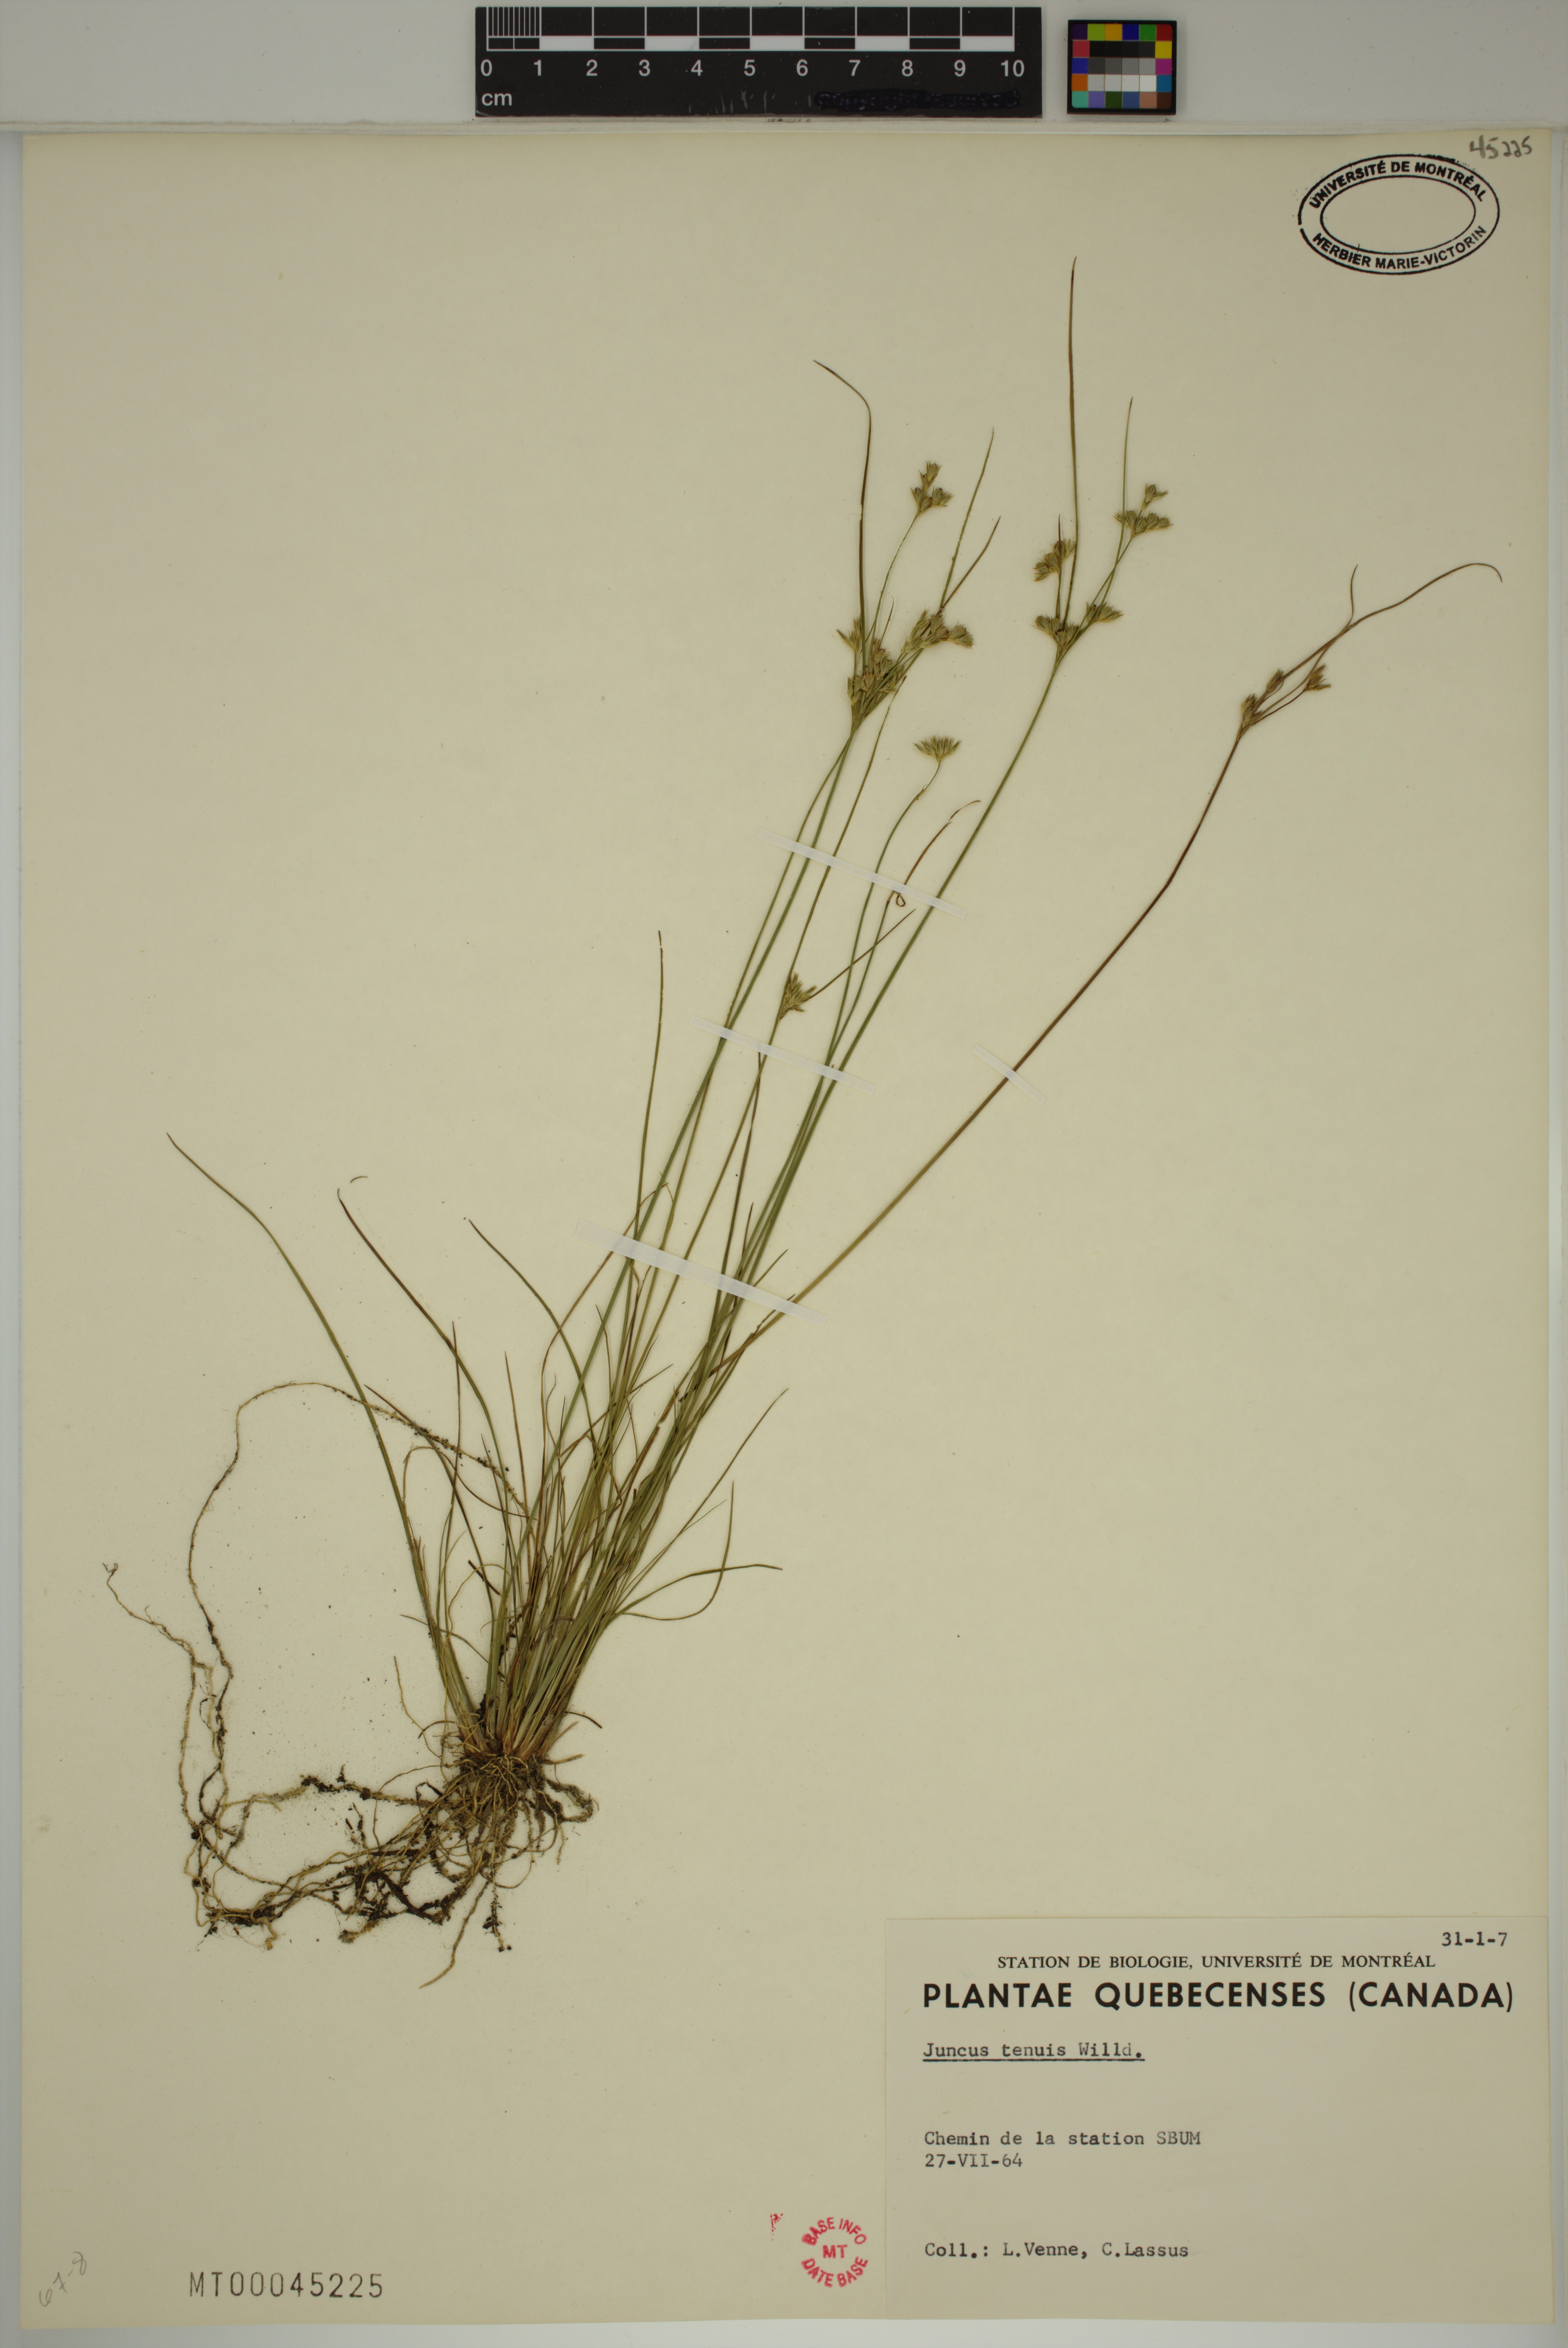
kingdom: Plantae
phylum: Tracheophyta
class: Liliopsida
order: Poales
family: Juncaceae
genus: Juncus
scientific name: Juncus tenuis
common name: Slender rush
